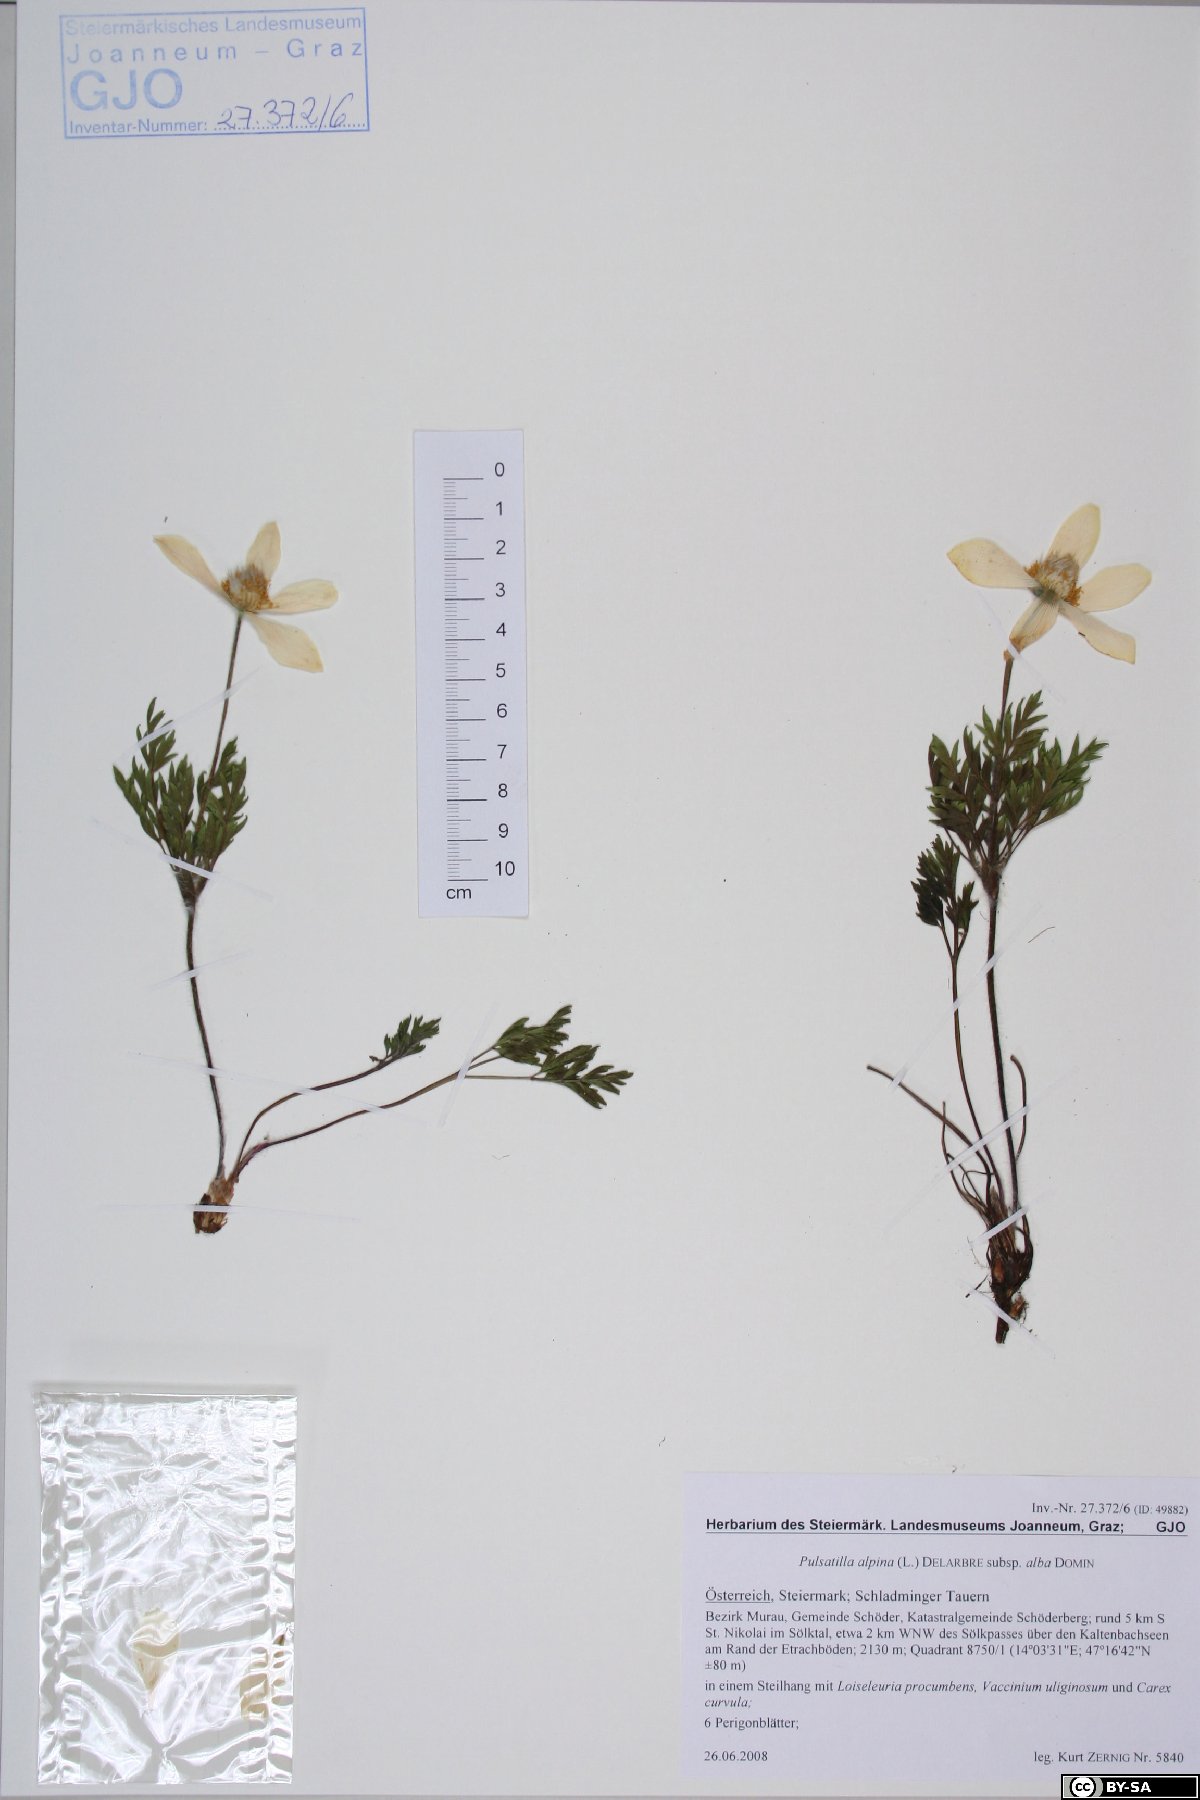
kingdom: Plantae
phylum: Tracheophyta
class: Magnoliopsida
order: Ranunculales
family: Ranunculaceae
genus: Pulsatilla
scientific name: Pulsatilla alpina
